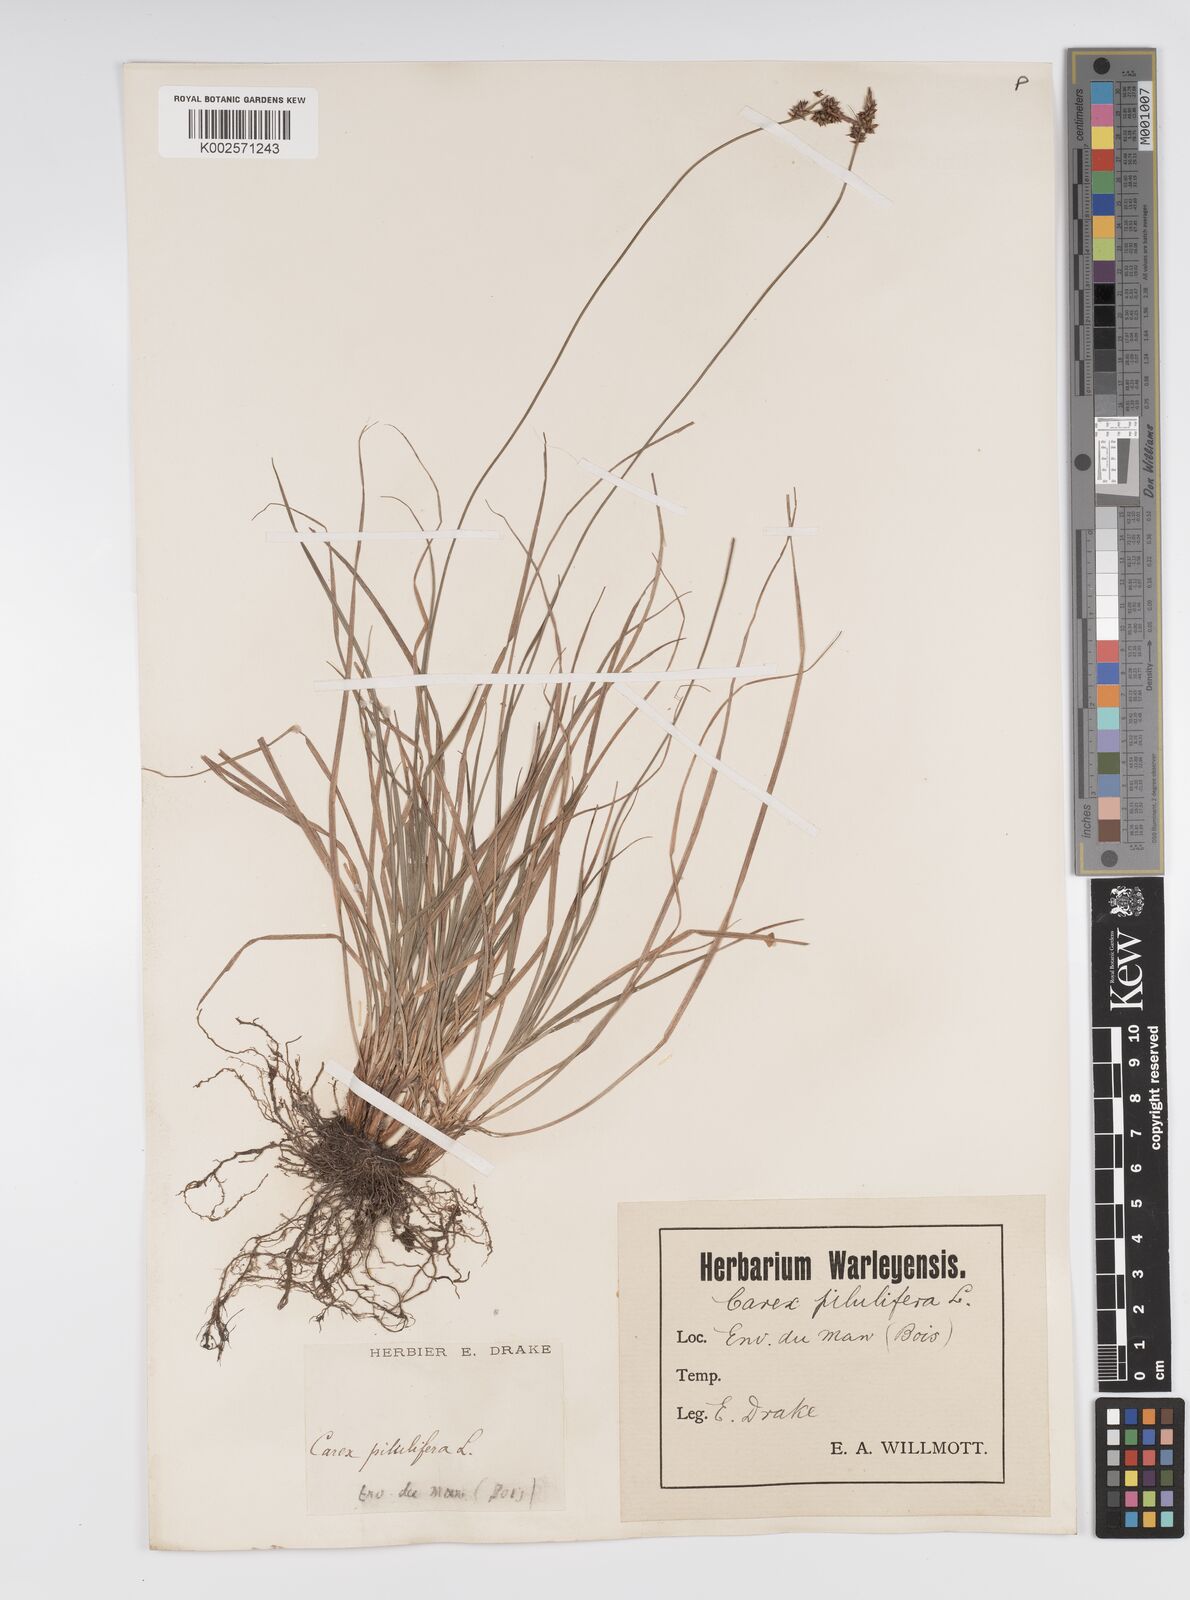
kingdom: Plantae
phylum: Tracheophyta
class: Liliopsida
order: Poales
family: Cyperaceae
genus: Carex
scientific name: Carex pilulifera
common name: Pill sedge
